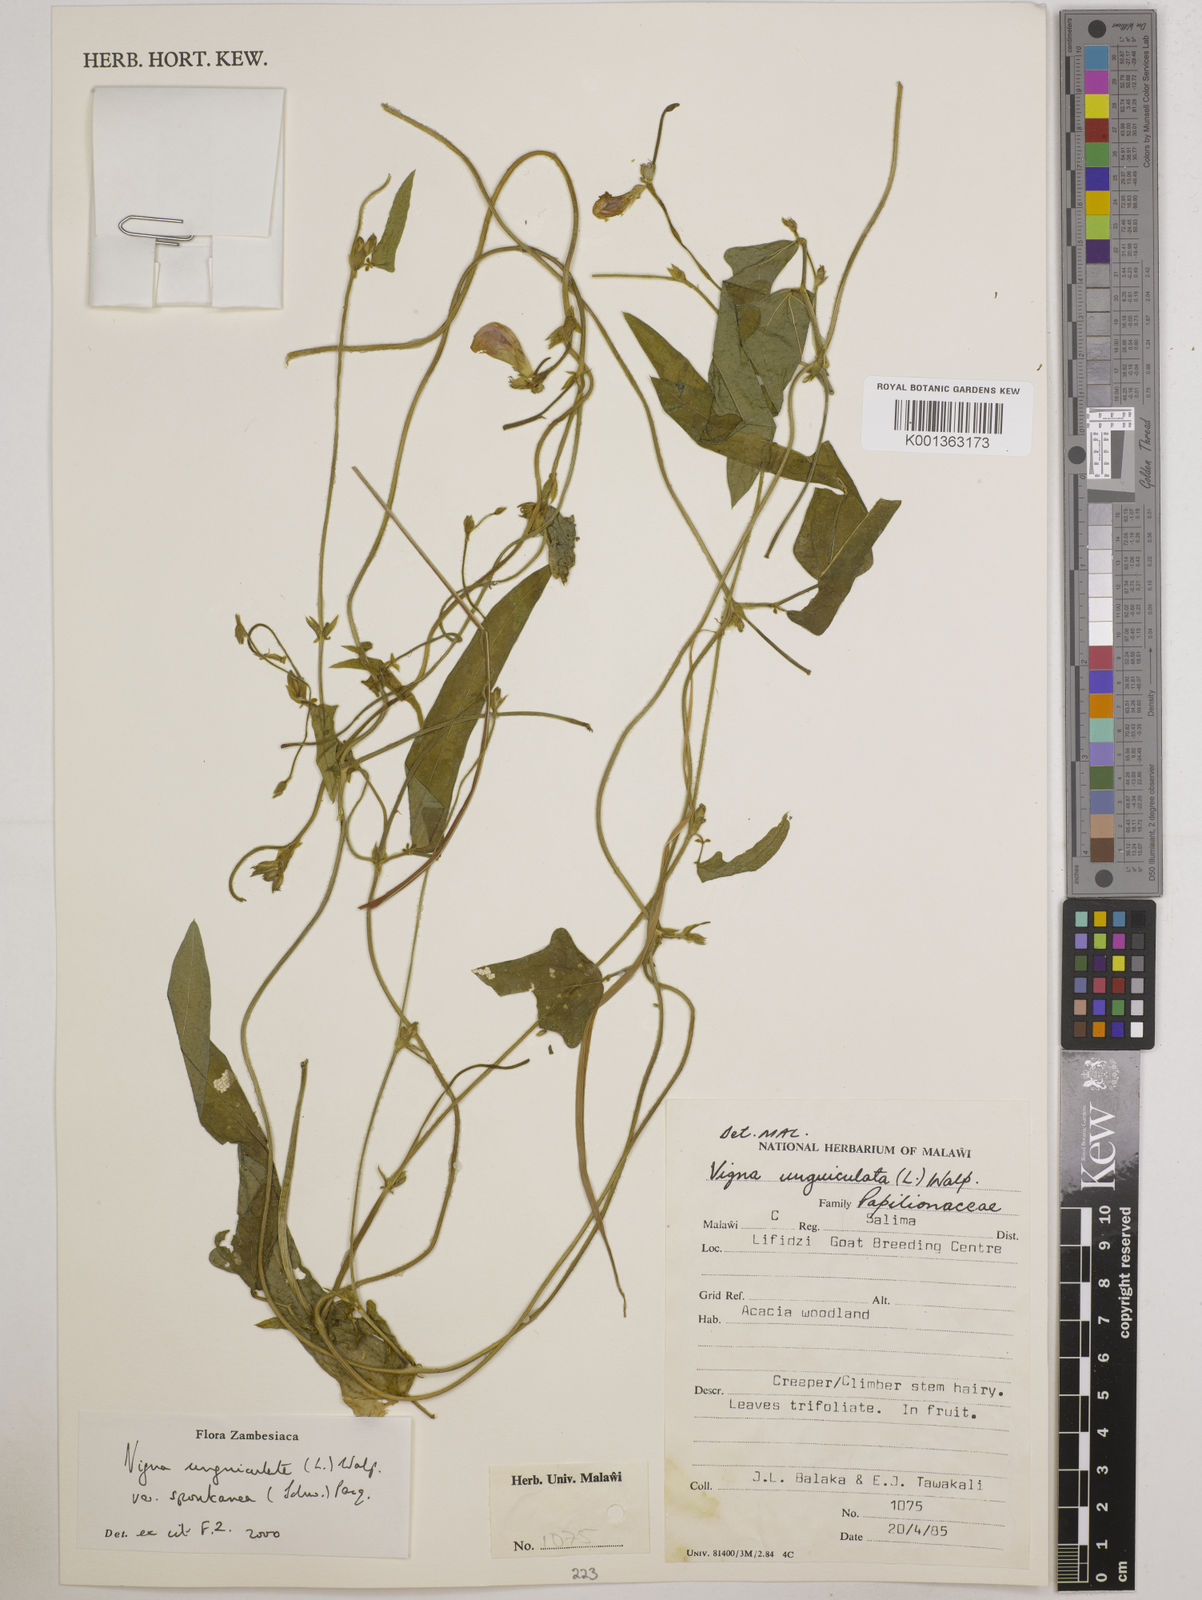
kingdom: Plantae
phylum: Tracheophyta
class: Magnoliopsida
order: Fabales
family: Fabaceae
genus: Vigna
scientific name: Vigna unguiculata
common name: Cowpea
